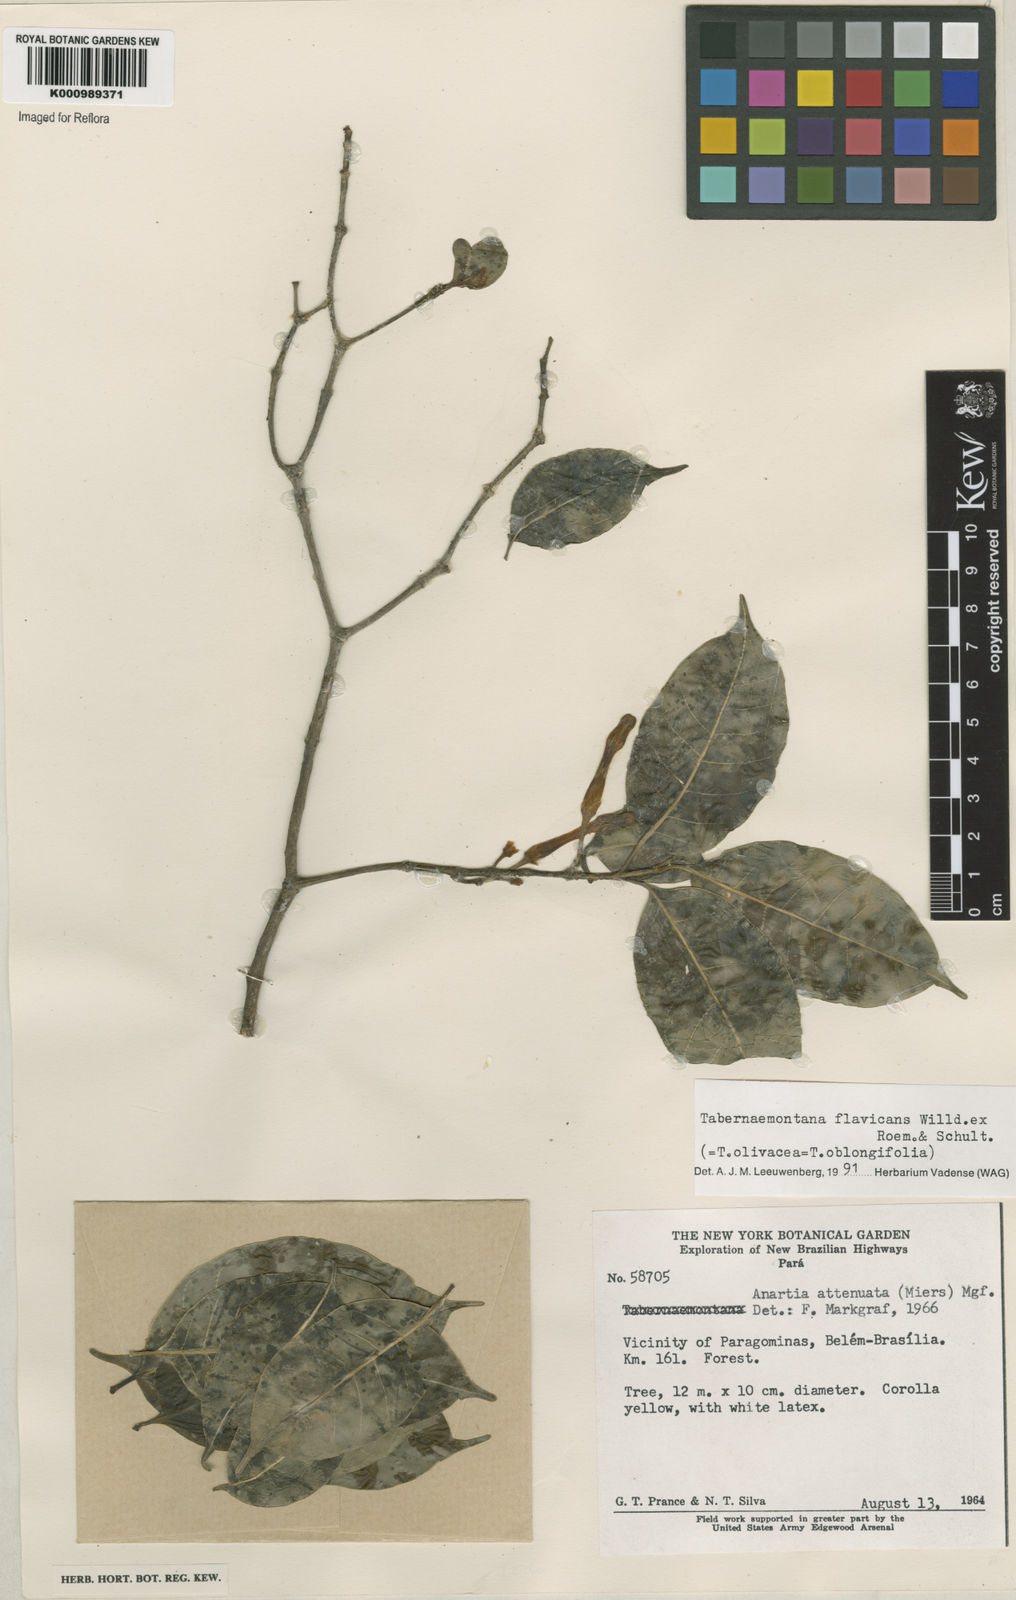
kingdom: Plantae
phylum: Tracheophyta
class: Magnoliopsida
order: Gentianales
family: Apocynaceae
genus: Tabernaemontana
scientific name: Tabernaemontana flavicans
